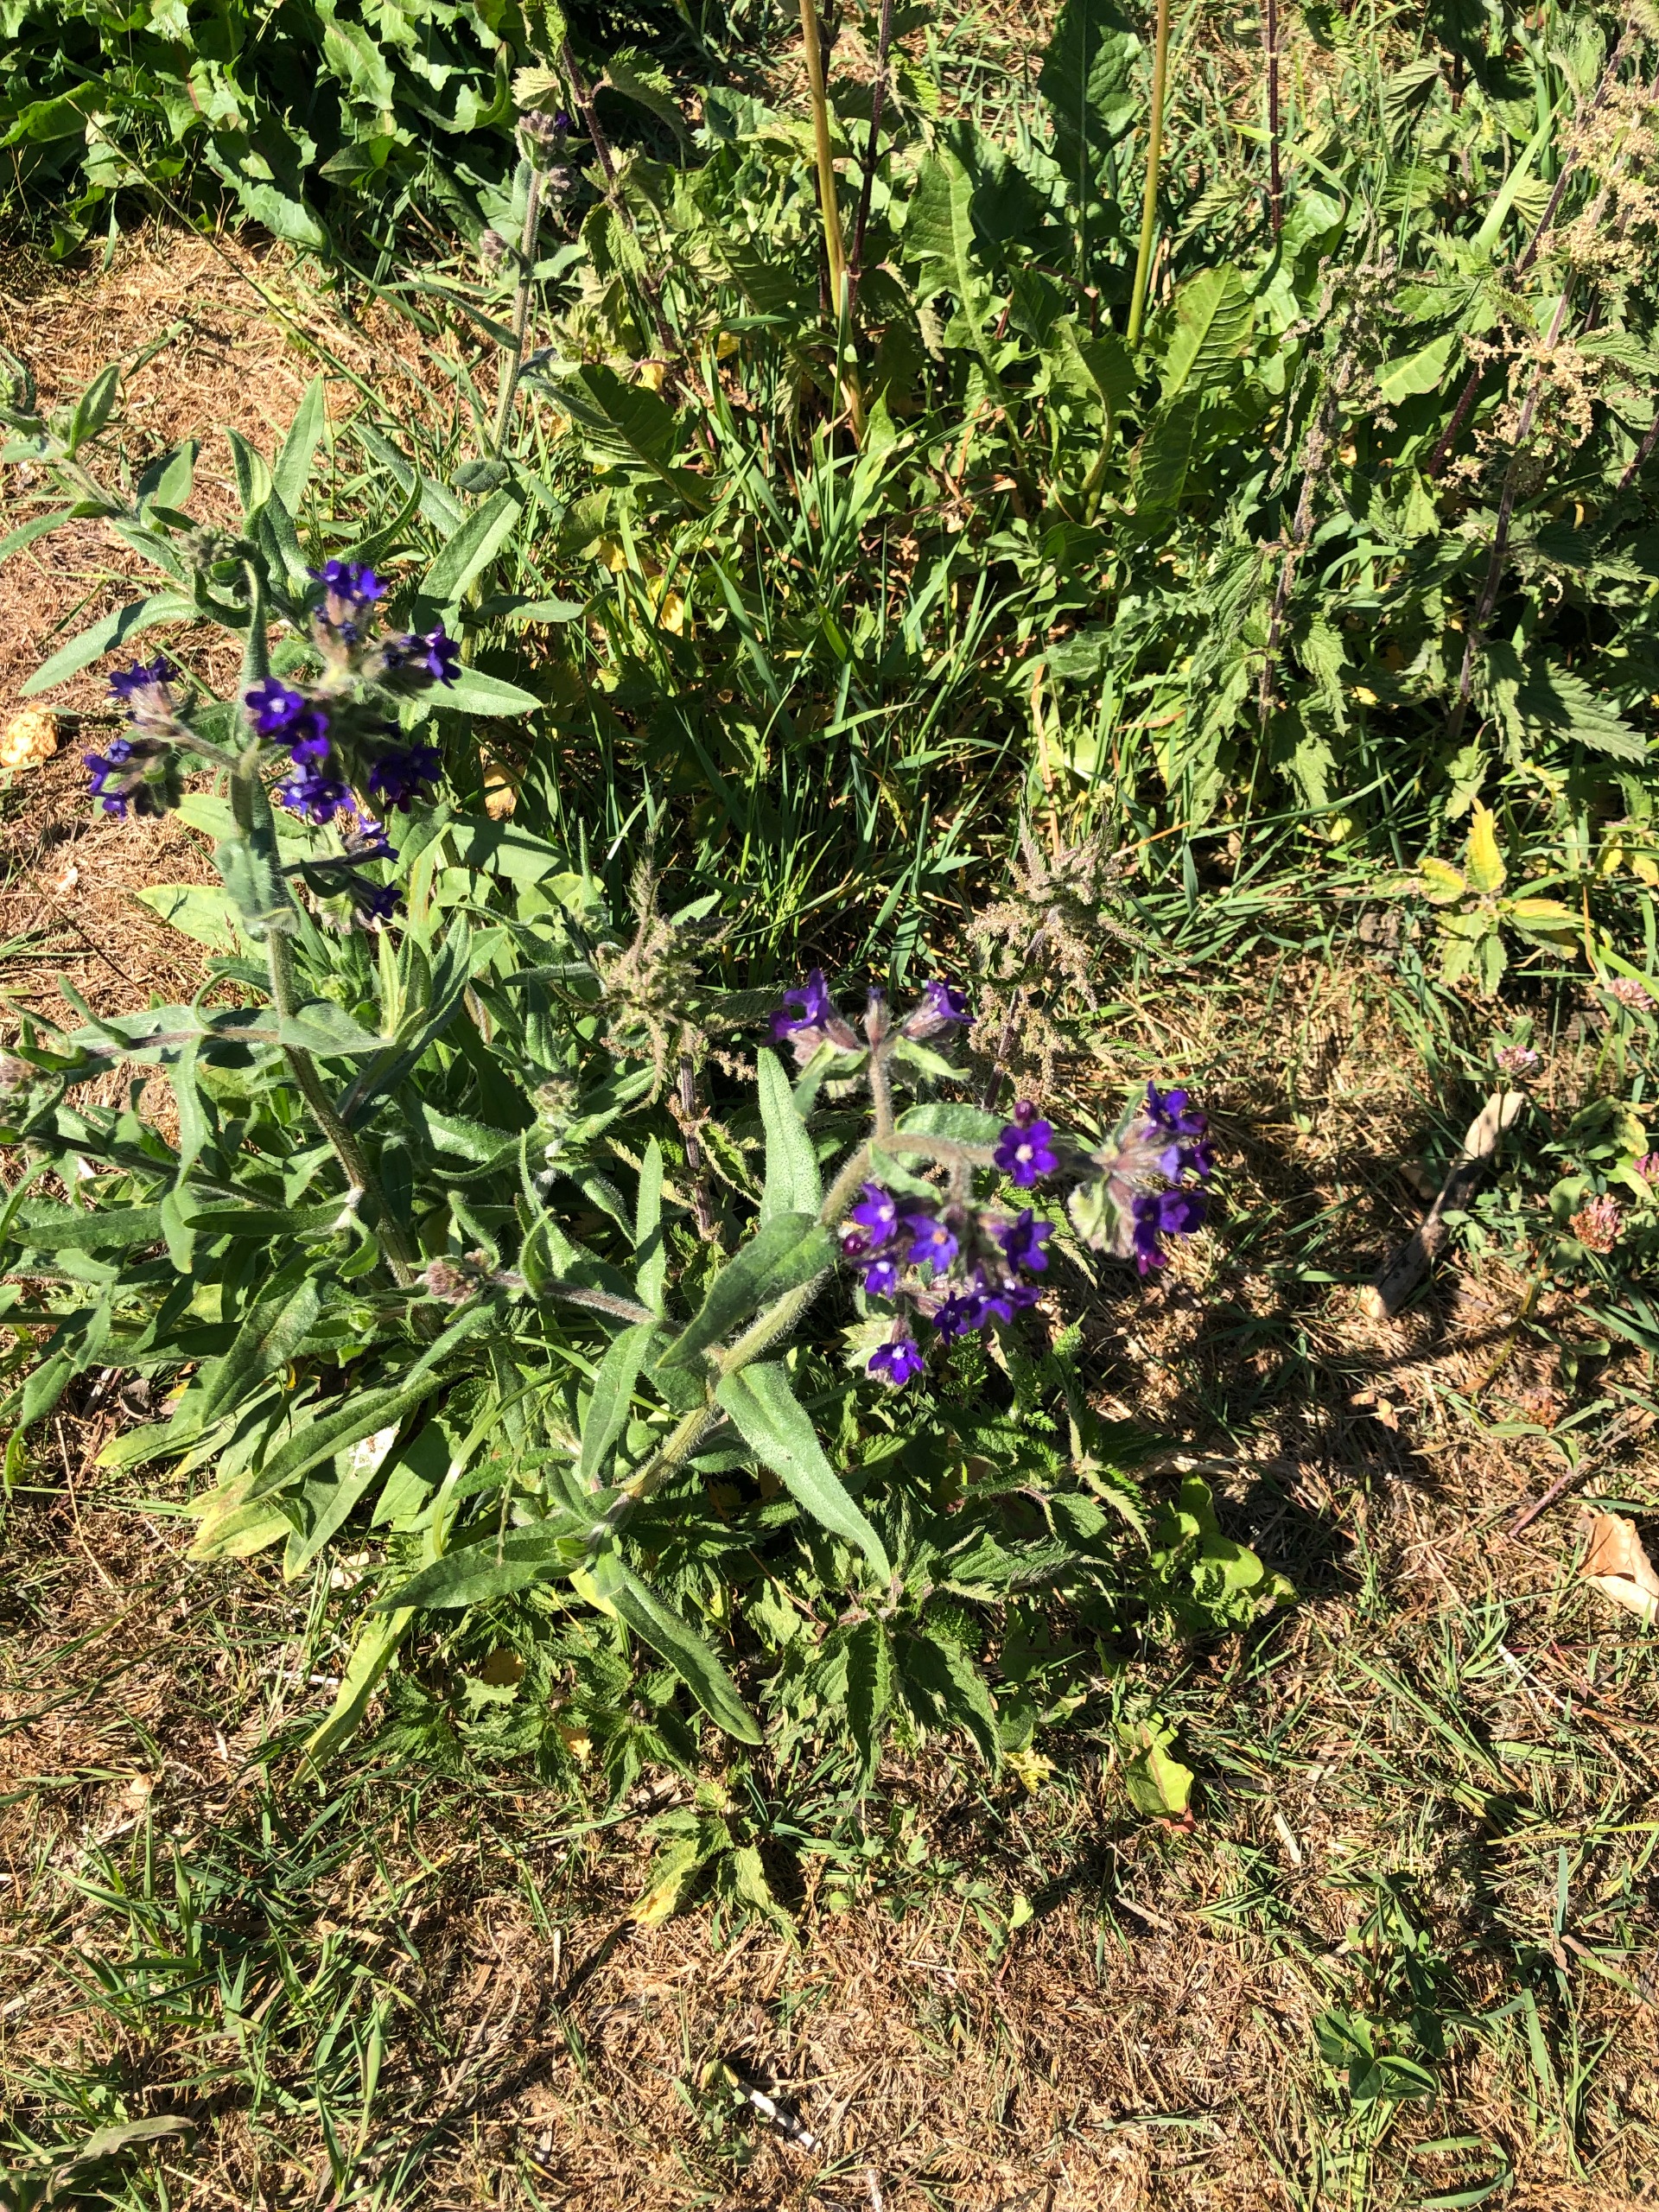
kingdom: Plantae
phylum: Tracheophyta
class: Magnoliopsida
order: Boraginales
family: Boraginaceae
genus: Anchusa
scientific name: Anchusa officinalis
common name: Læge-oksetunge
